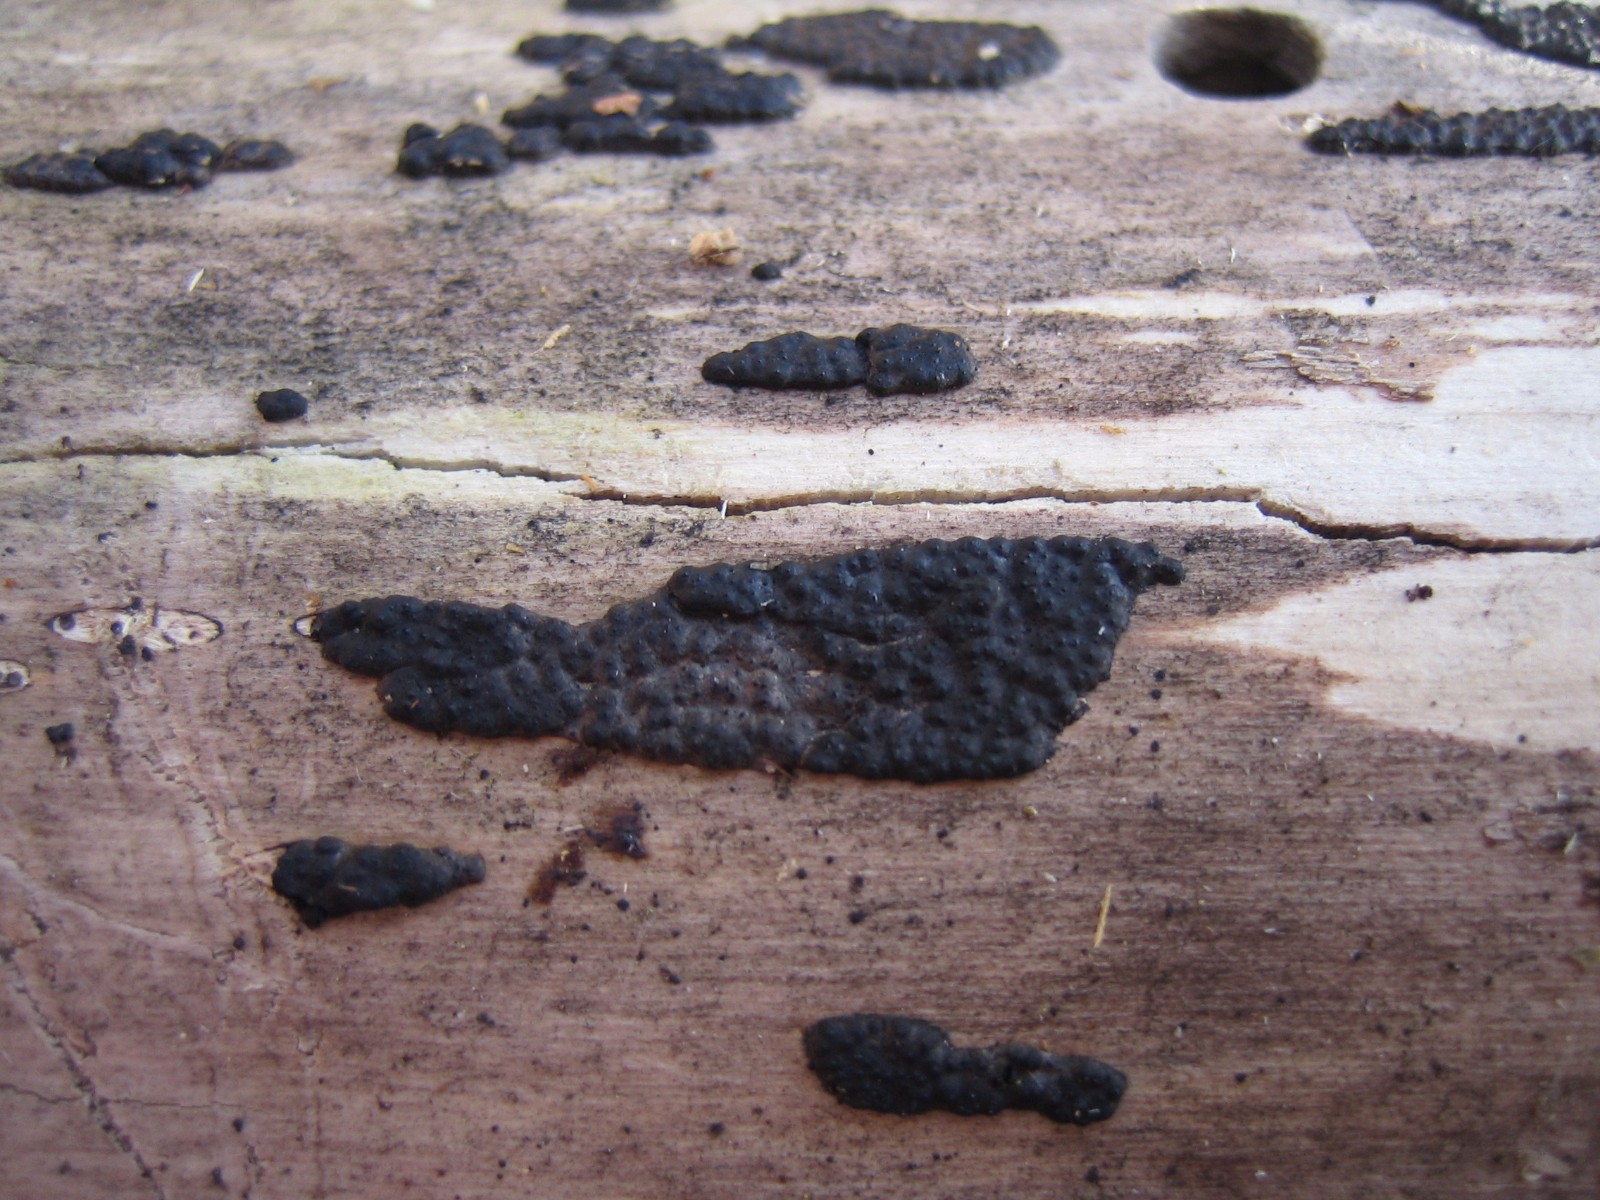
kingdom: Fungi
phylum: Ascomycota
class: Sordariomycetes
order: Xylariales
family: Xylariaceae
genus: Nemania
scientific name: Nemania
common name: kuldyne
